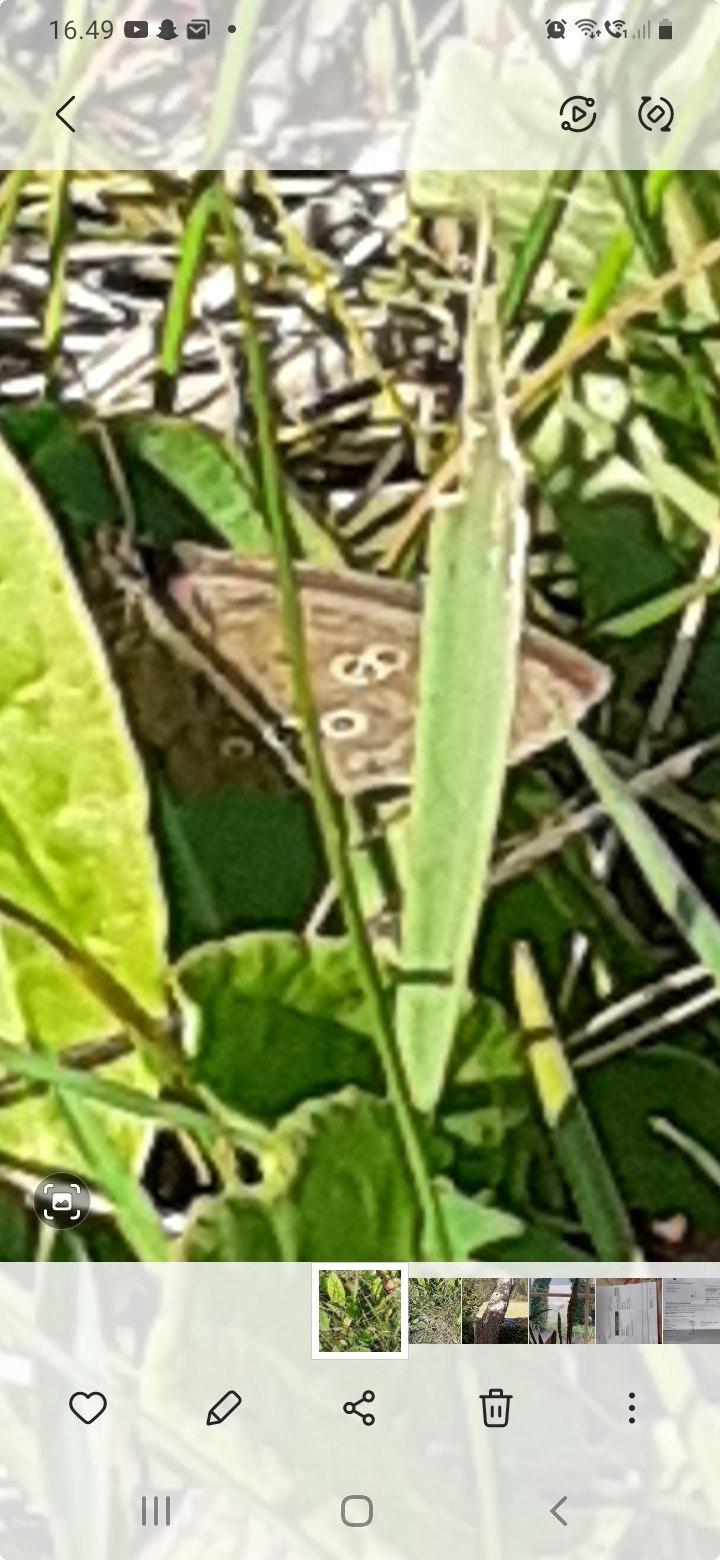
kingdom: Animalia
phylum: Arthropoda
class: Insecta
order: Lepidoptera
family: Nymphalidae
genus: Aphantopus
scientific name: Aphantopus hyperantus
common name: Engrandøje
